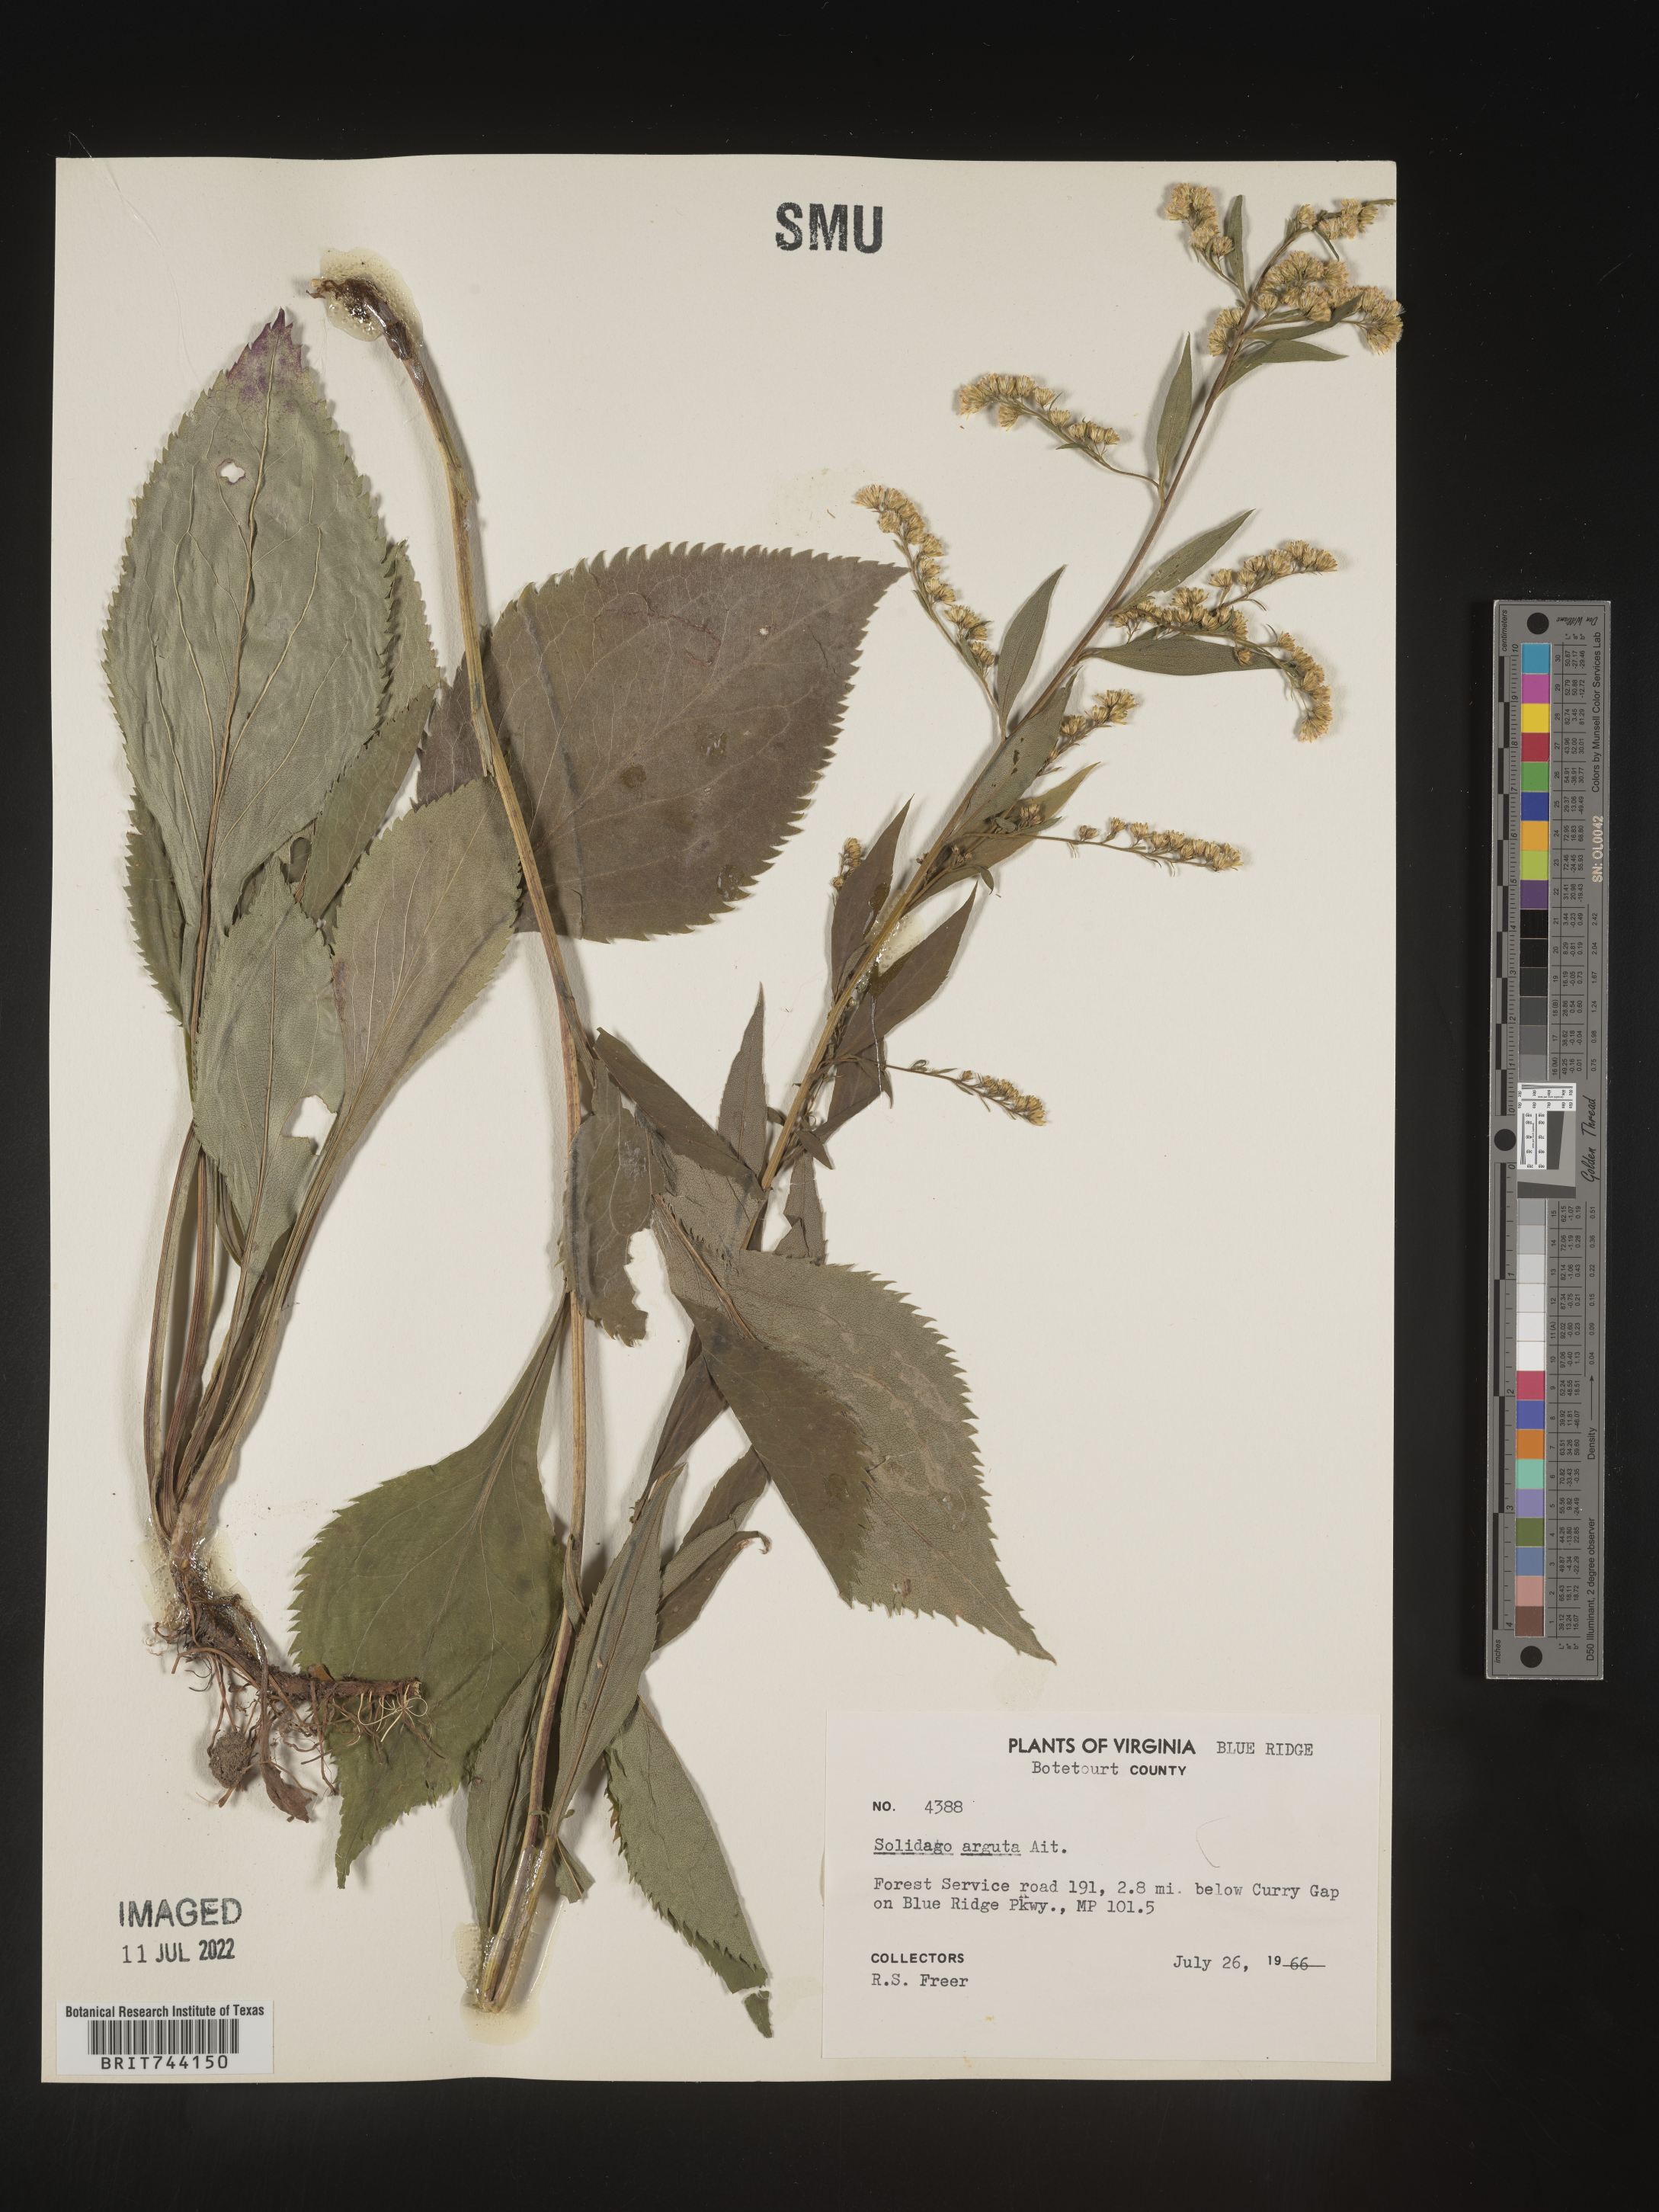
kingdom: Plantae
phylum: Tracheophyta
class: Magnoliopsida
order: Asterales
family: Asteraceae
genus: Solidago
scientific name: Solidago arguta
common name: Atlantic goldenrod
